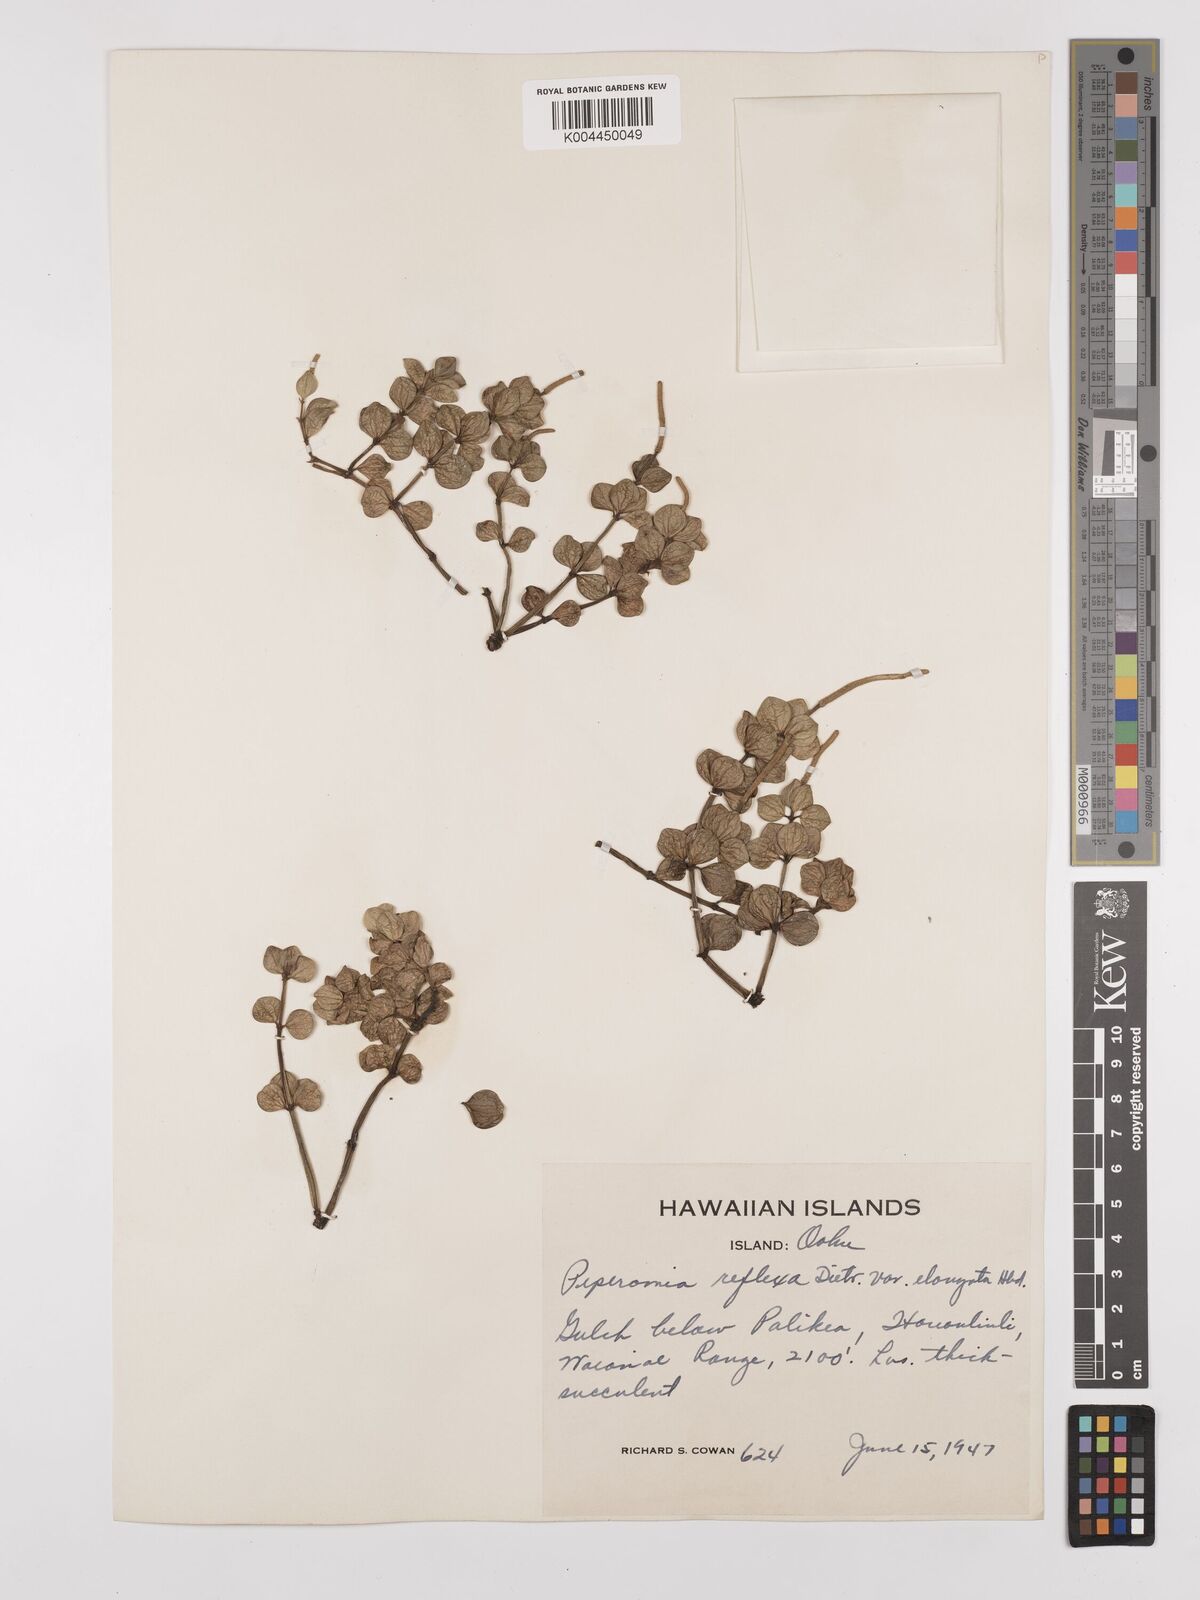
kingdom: Plantae
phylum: Tracheophyta
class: Magnoliopsida
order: Piperales
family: Piperaceae
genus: Peperomia
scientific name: Peperomia tetraphylla
